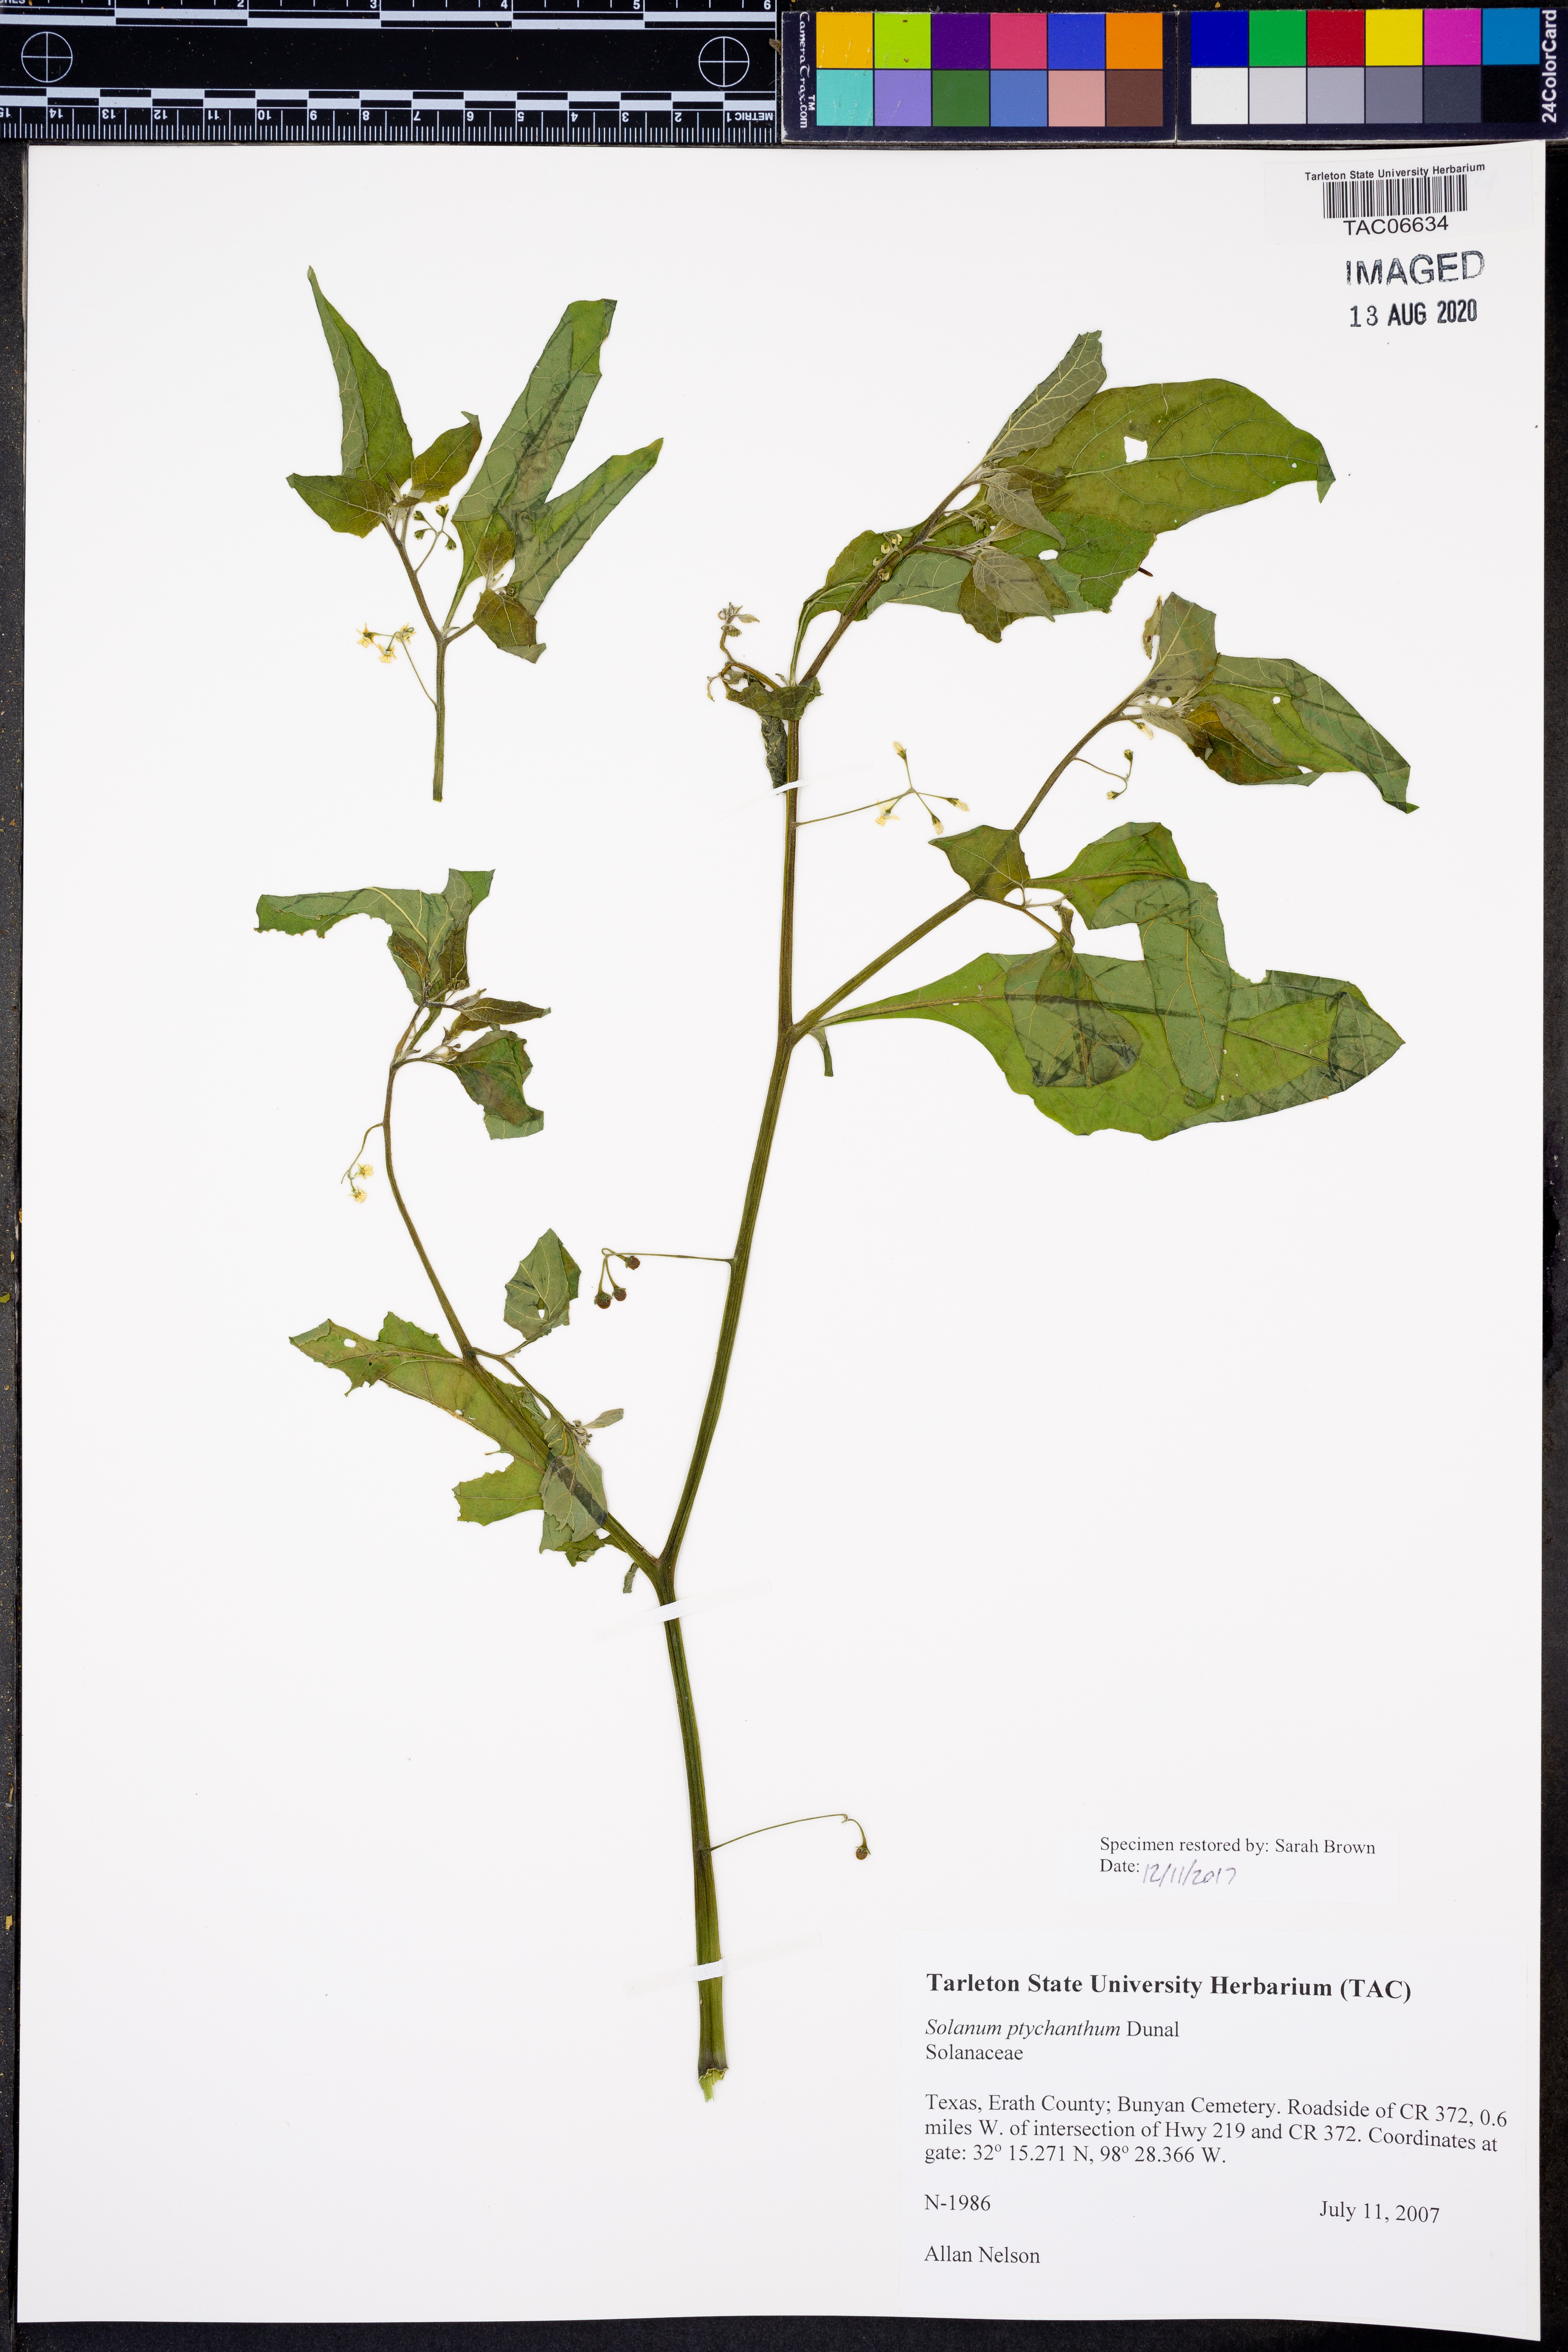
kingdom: Plantae
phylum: Tracheophyta
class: Magnoliopsida
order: Solanales
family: Solanaceae
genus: Solanum
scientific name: Solanum americanum
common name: American black nightshade
